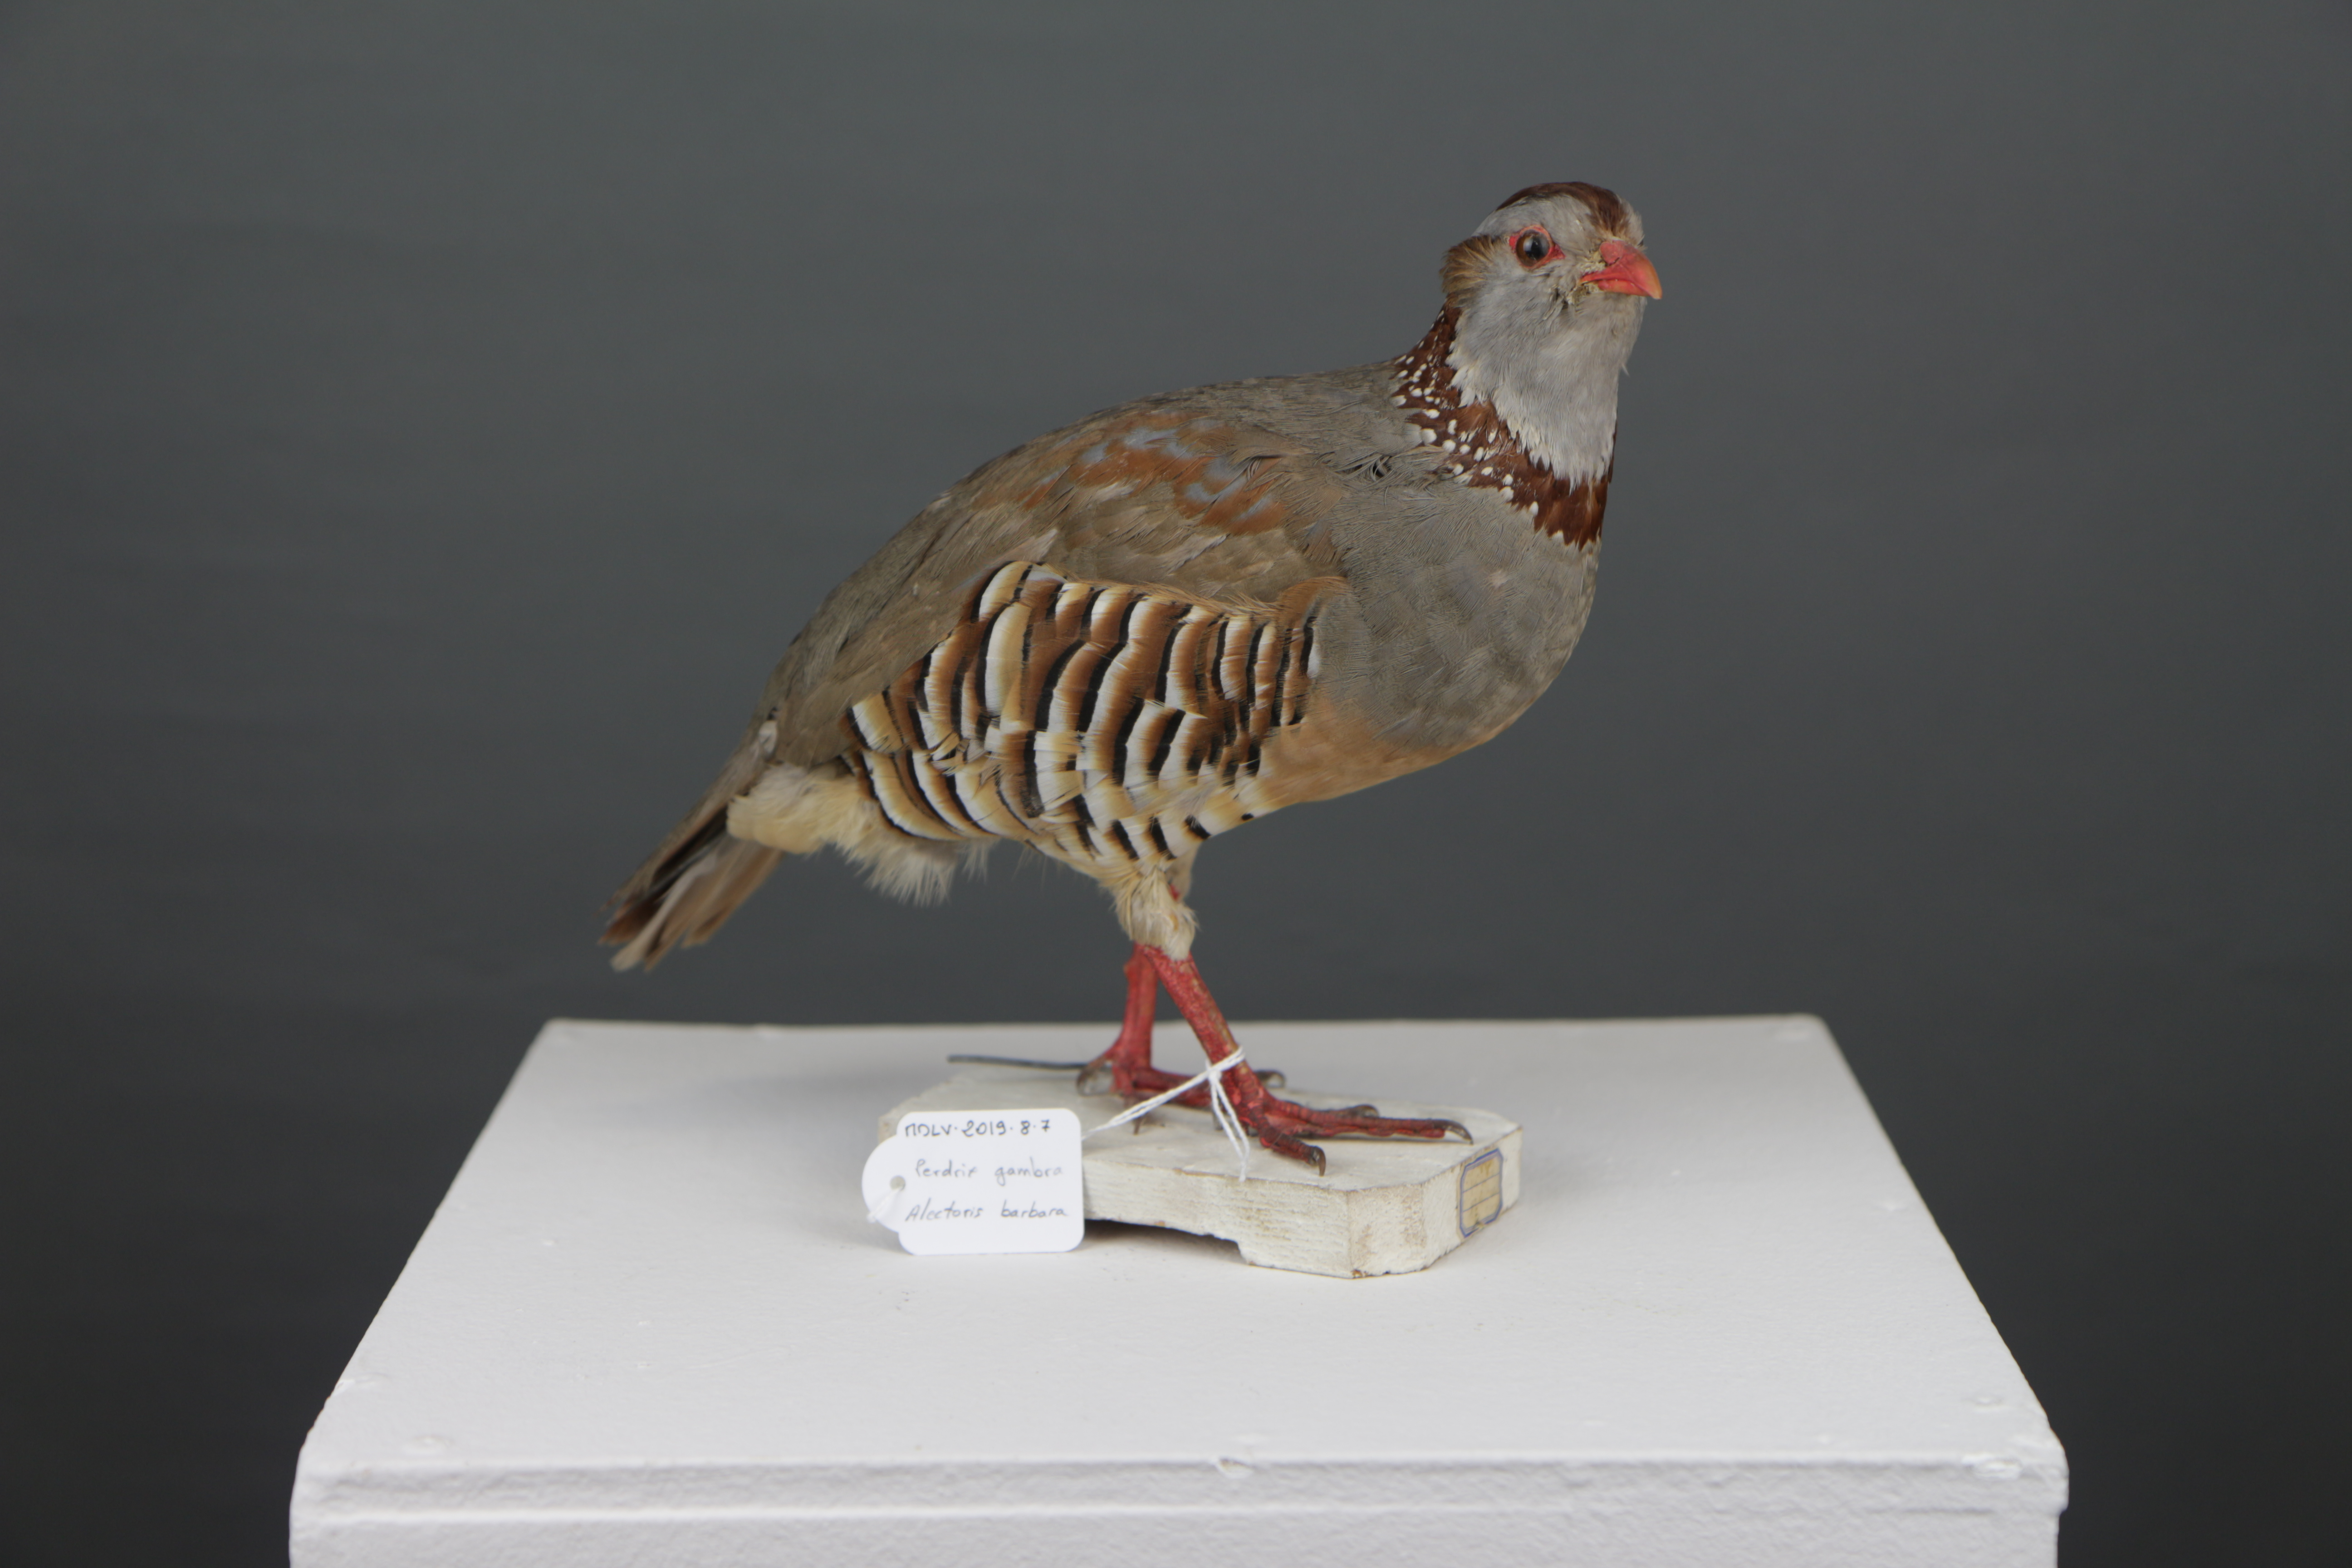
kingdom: Animalia
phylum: Chordata
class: Aves
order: Galliformes
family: Phasianidae
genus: Alectoris
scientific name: Alectoris barbara
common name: Barbary partridge
